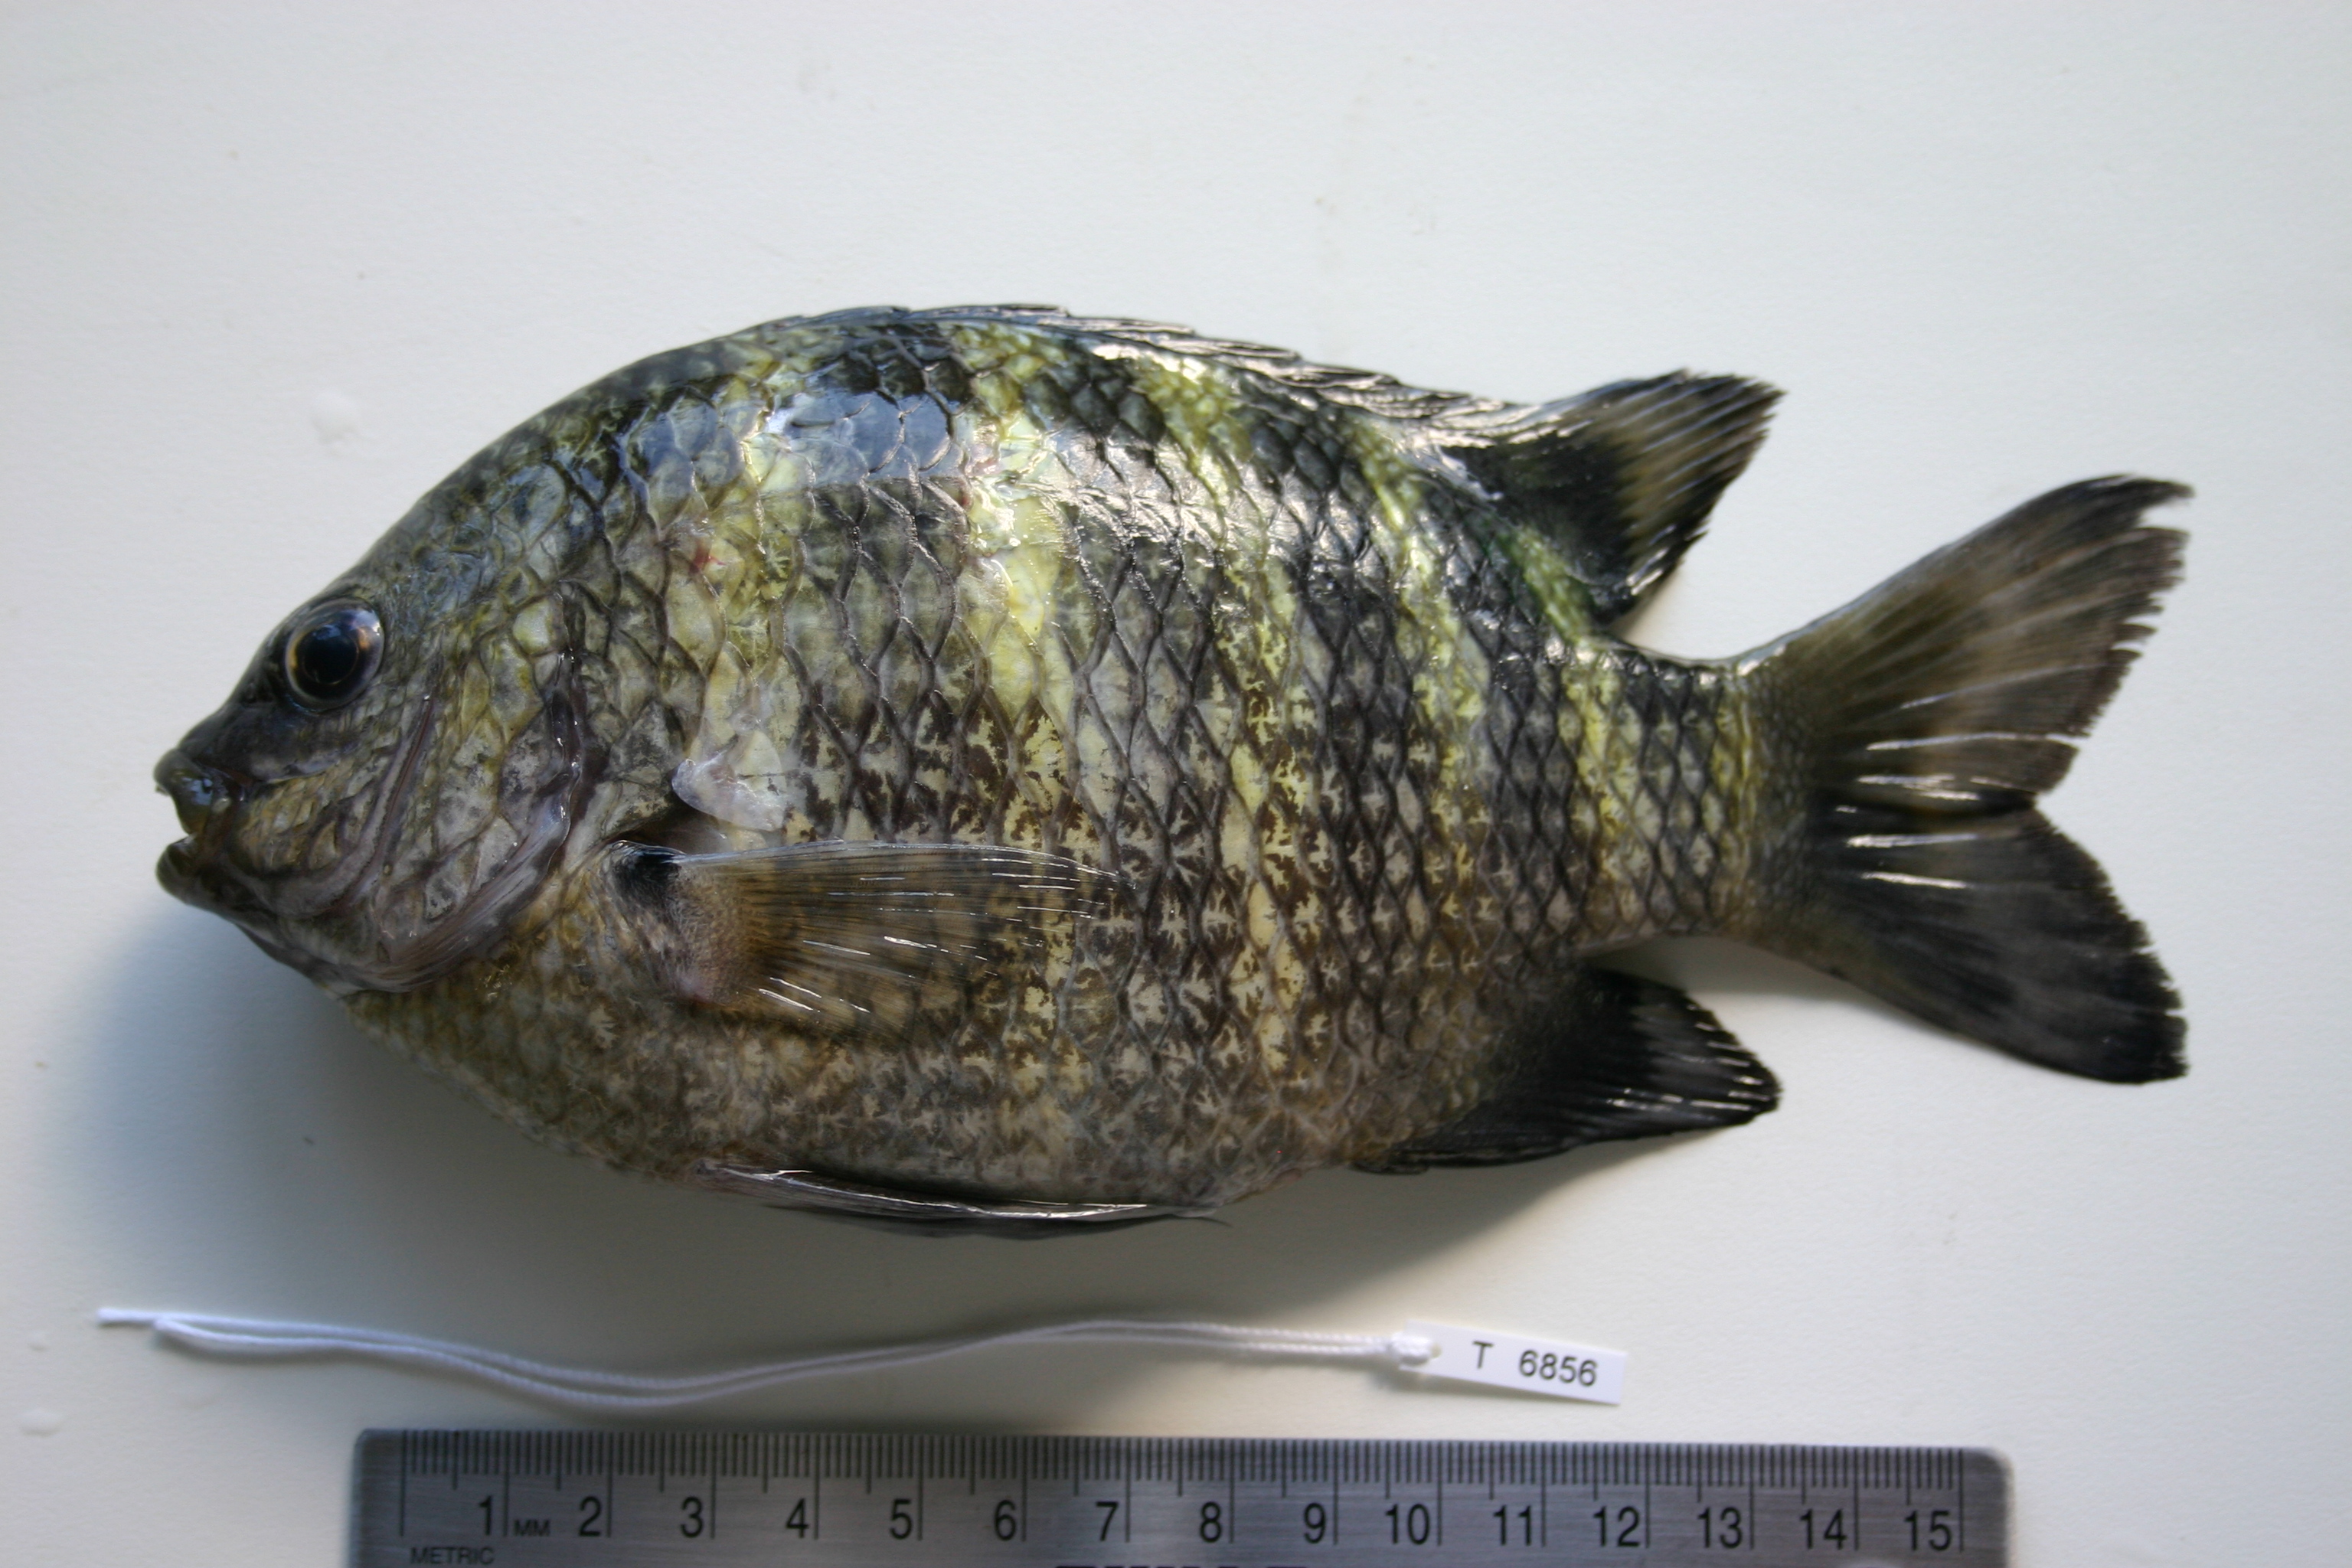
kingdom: Animalia
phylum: Chordata
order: Perciformes
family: Pomacentridae
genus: Abudefduf
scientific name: Abudefduf septemfasciatus
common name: Banded sergeant
